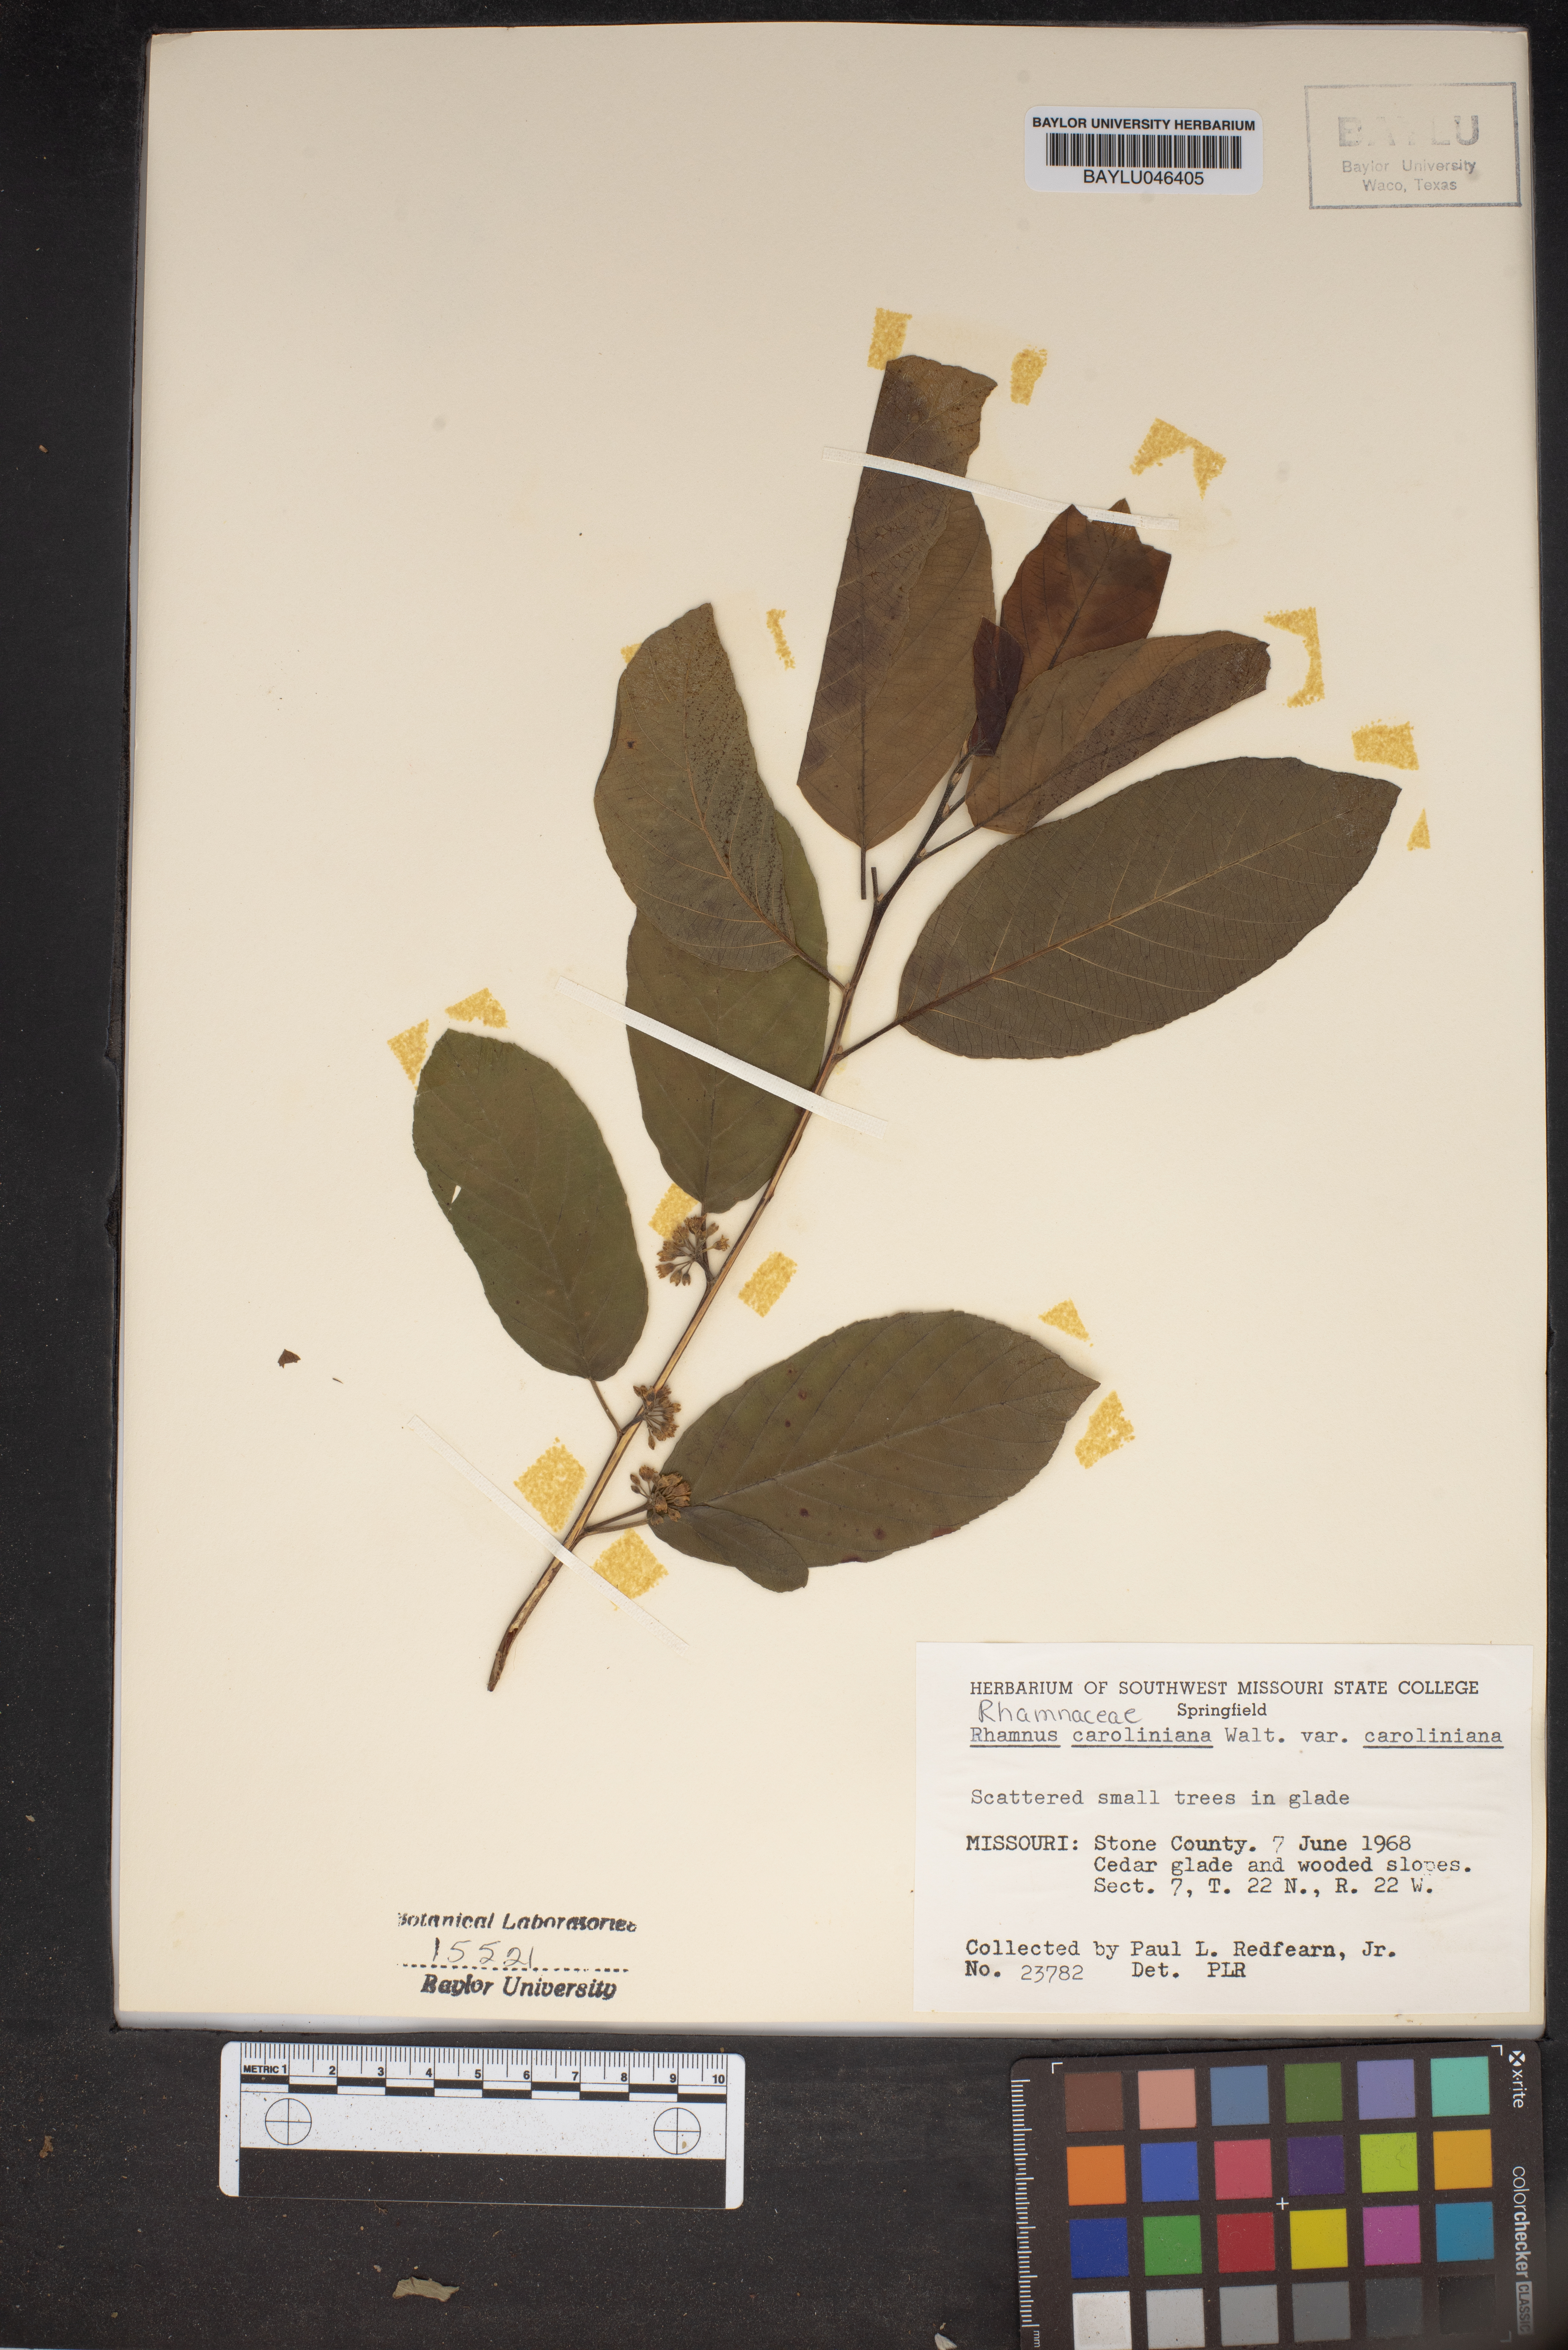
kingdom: Plantae
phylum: Tracheophyta
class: Magnoliopsida
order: Rosales
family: Rhamnaceae
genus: Frangula
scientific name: Frangula caroliniana
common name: Carolina buckthorn
